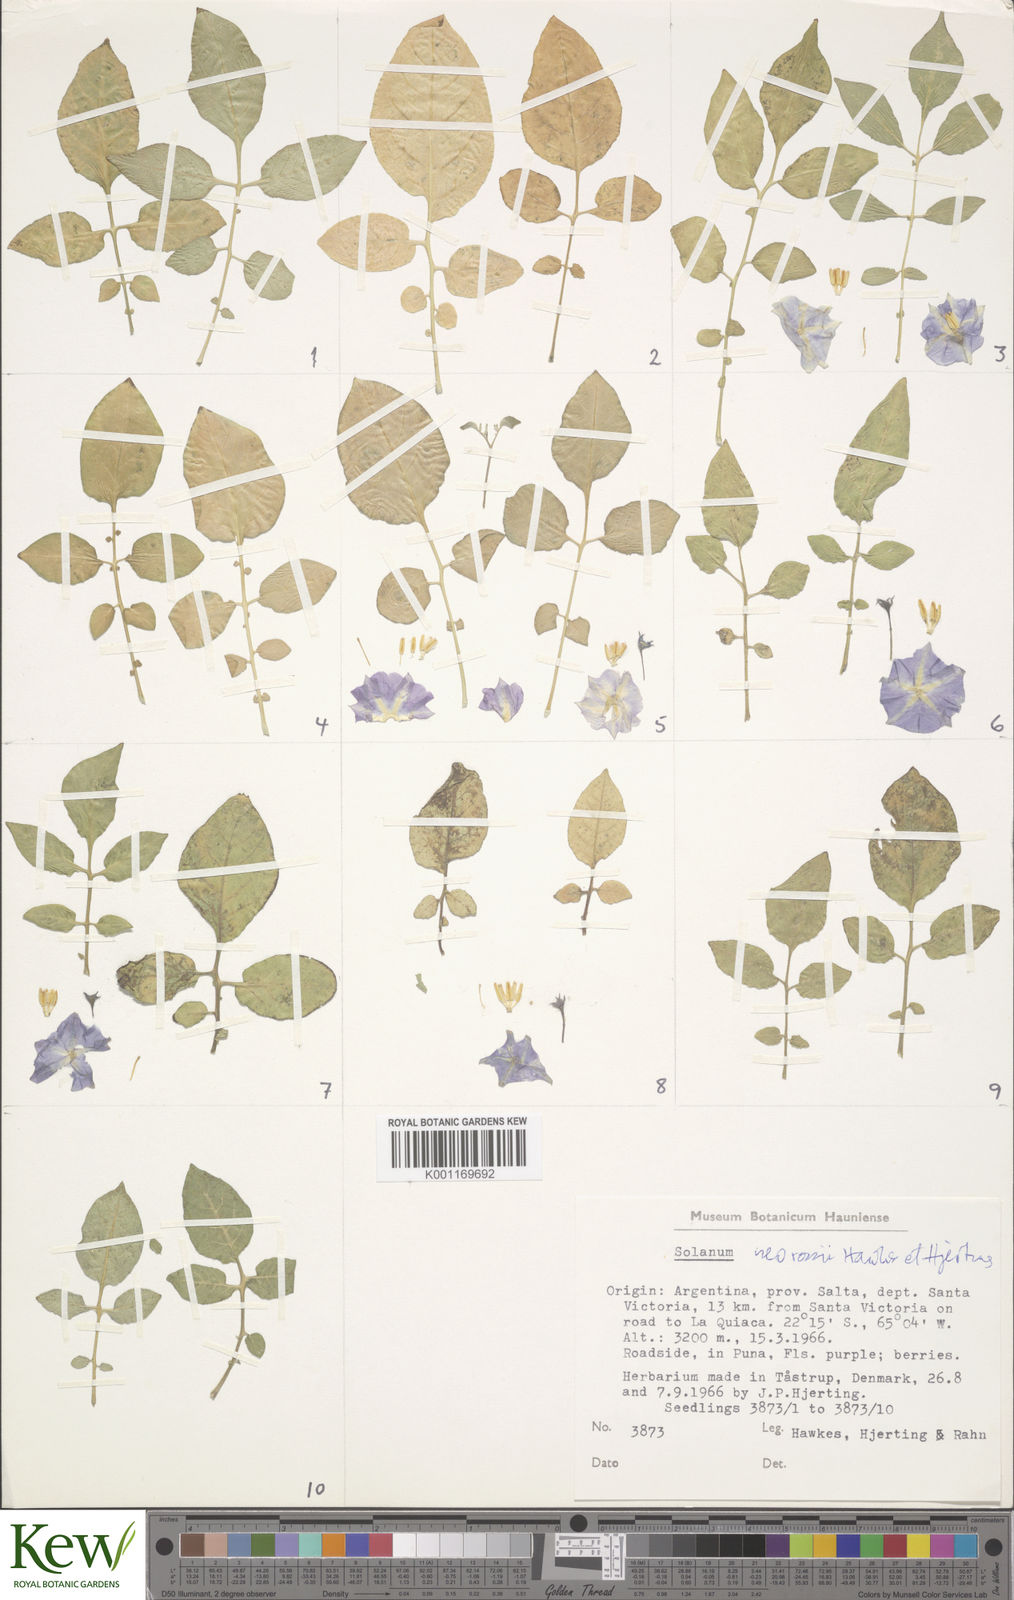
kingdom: Plantae
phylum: Tracheophyta
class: Magnoliopsida
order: Solanales
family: Solanaceae
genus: Solanum
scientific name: Solanum neorossii
